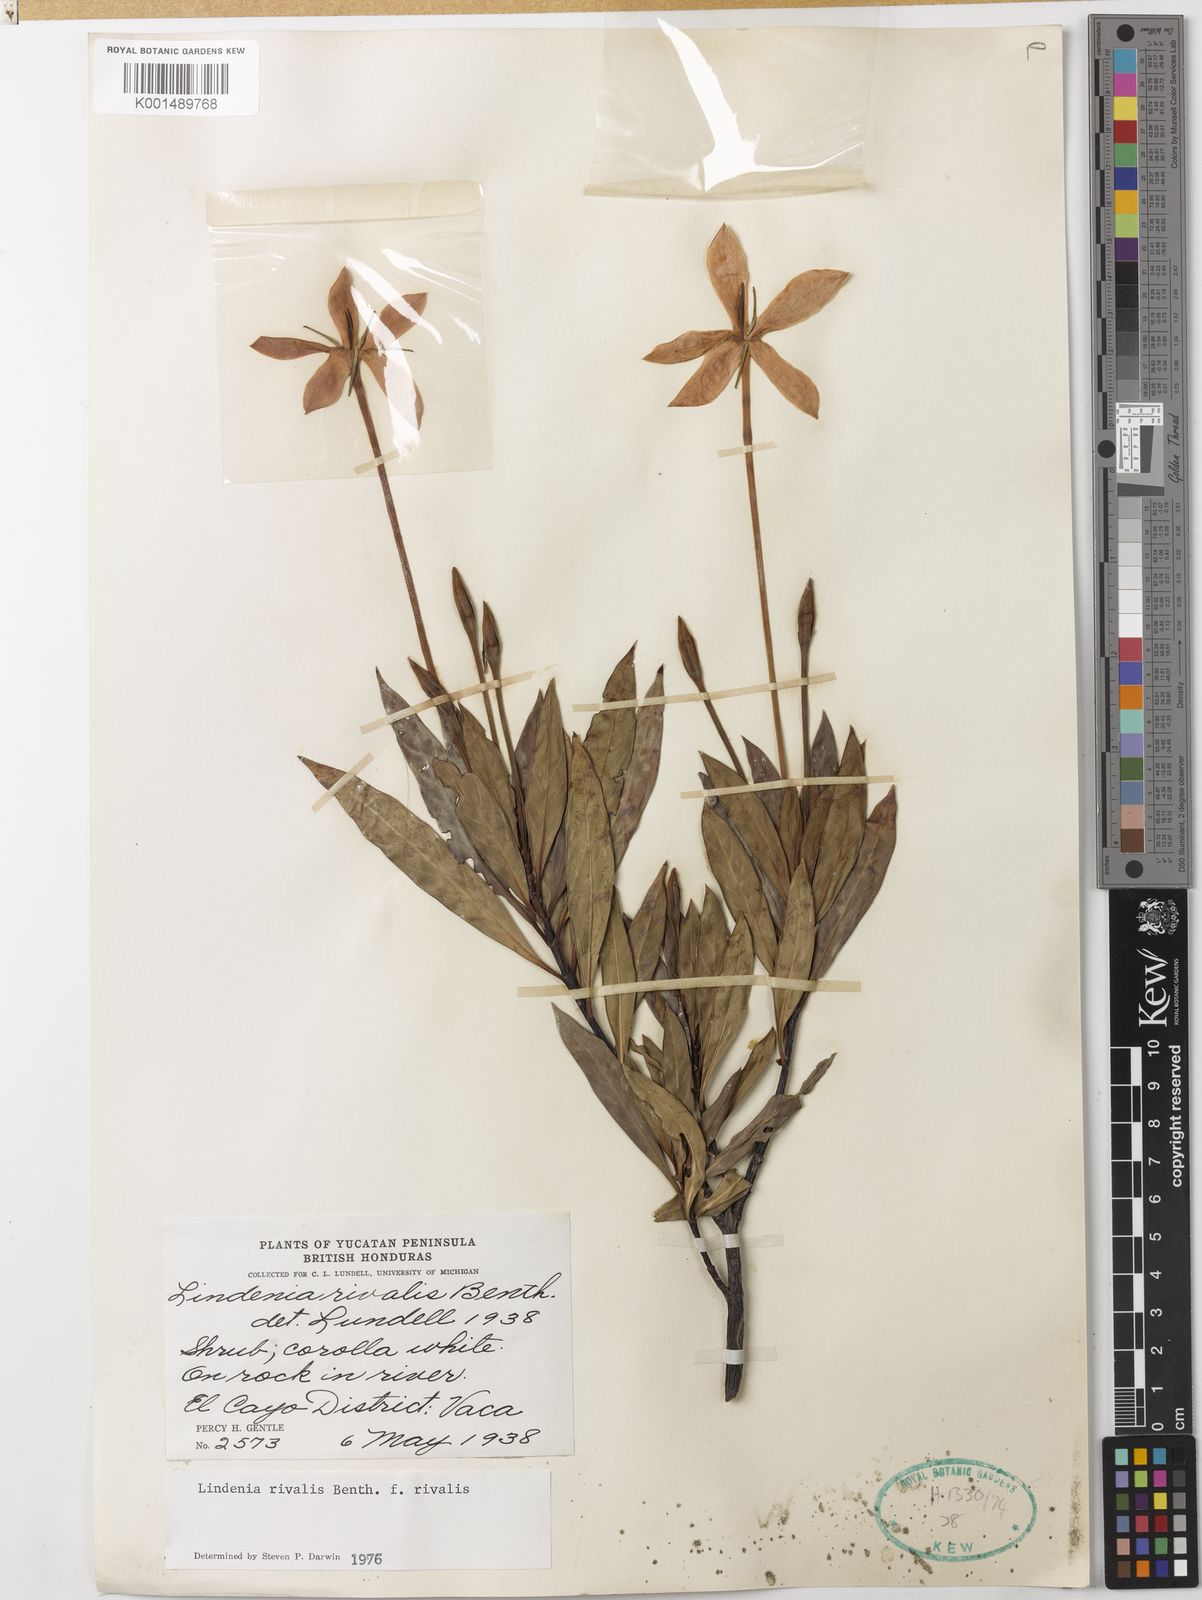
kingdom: Plantae
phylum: Tracheophyta
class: Magnoliopsida
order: Gentianales
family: Rubiaceae
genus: Augusta
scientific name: Augusta rivalis
